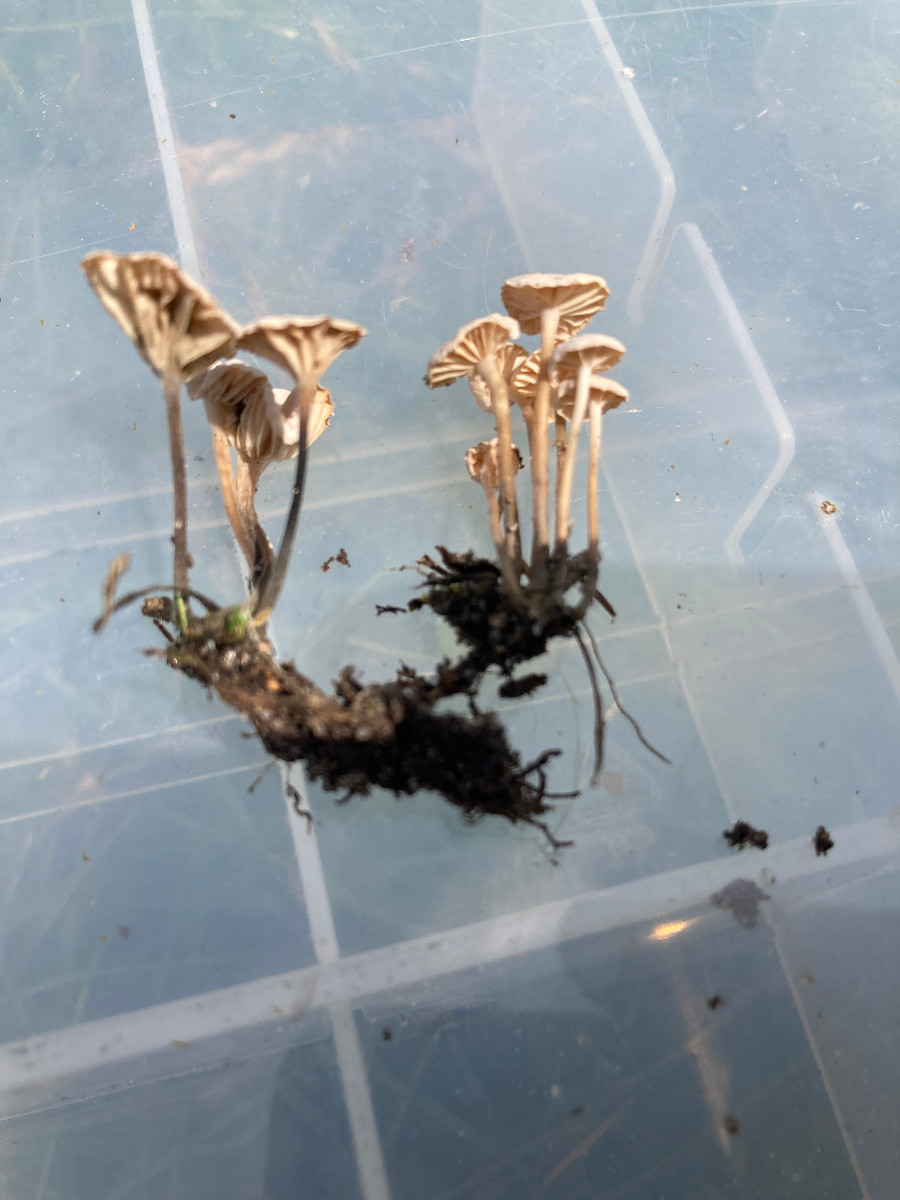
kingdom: Fungi
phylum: Basidiomycota
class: Agaricomycetes
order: Agaricales
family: Omphalotaceae
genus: Marasmiellus
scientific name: Marasmiellus tricolor
